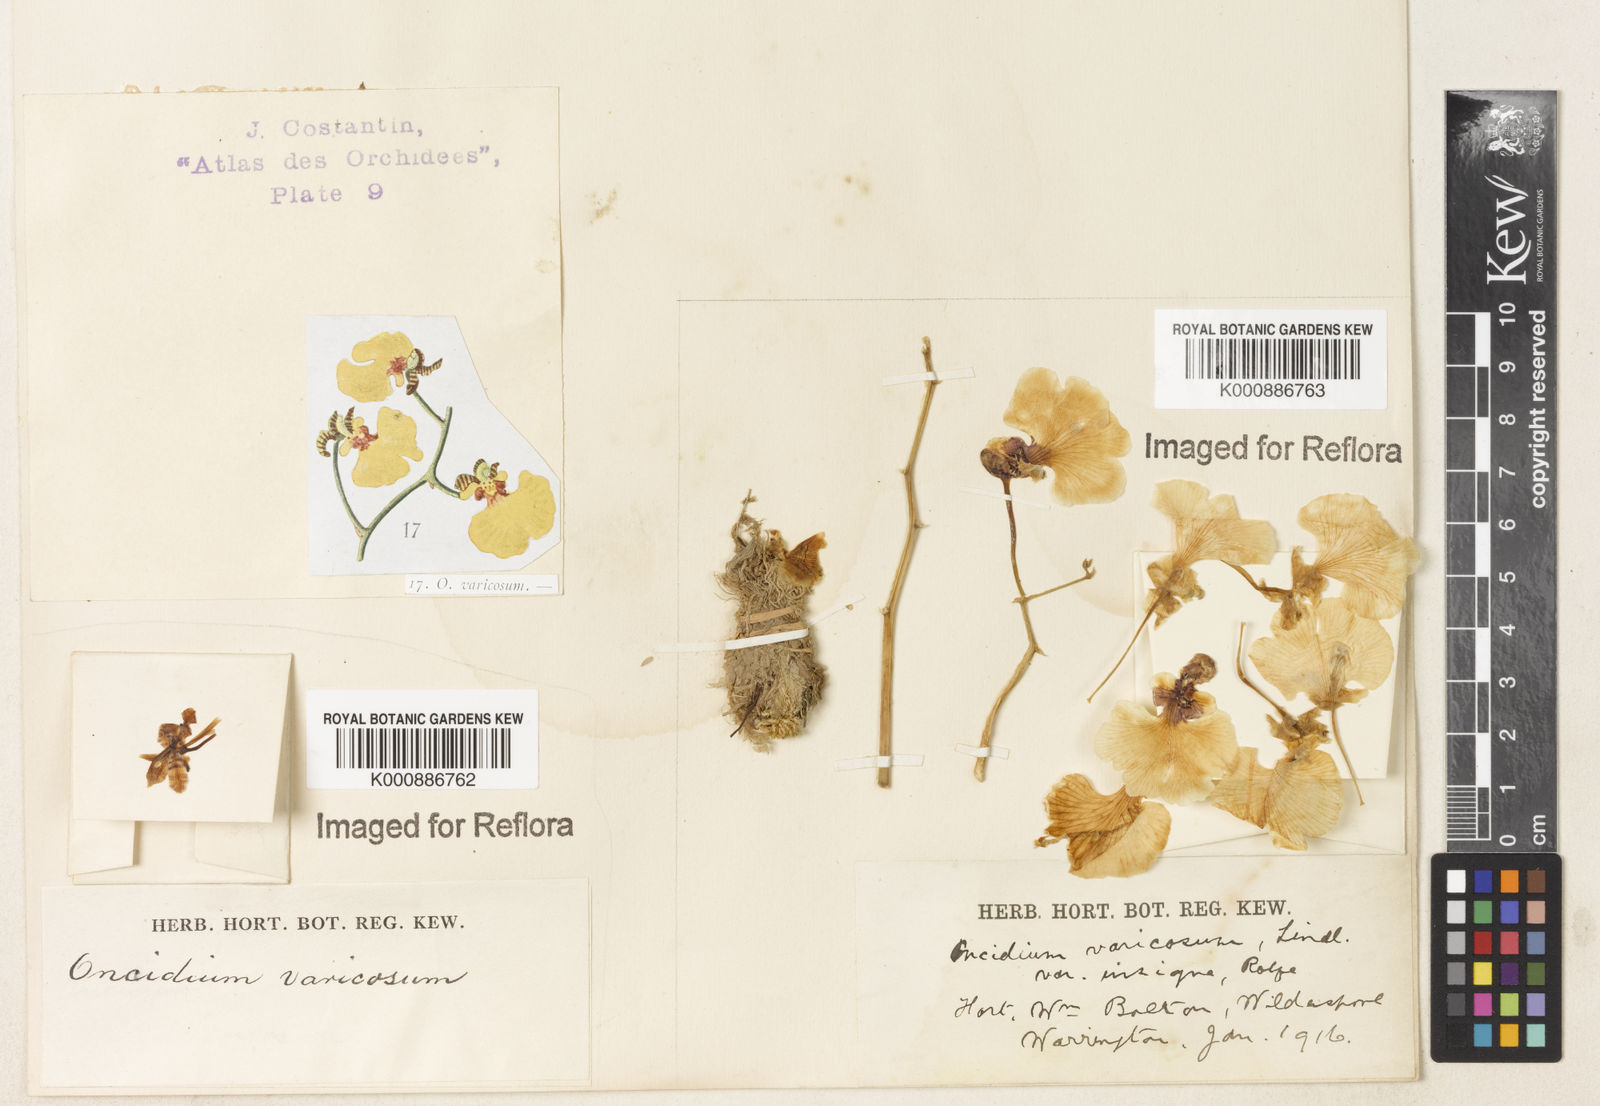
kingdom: Plantae
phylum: Tracheophyta
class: Liliopsida
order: Asparagales
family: Orchidaceae
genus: Gomesa
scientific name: Gomesa pulchella
